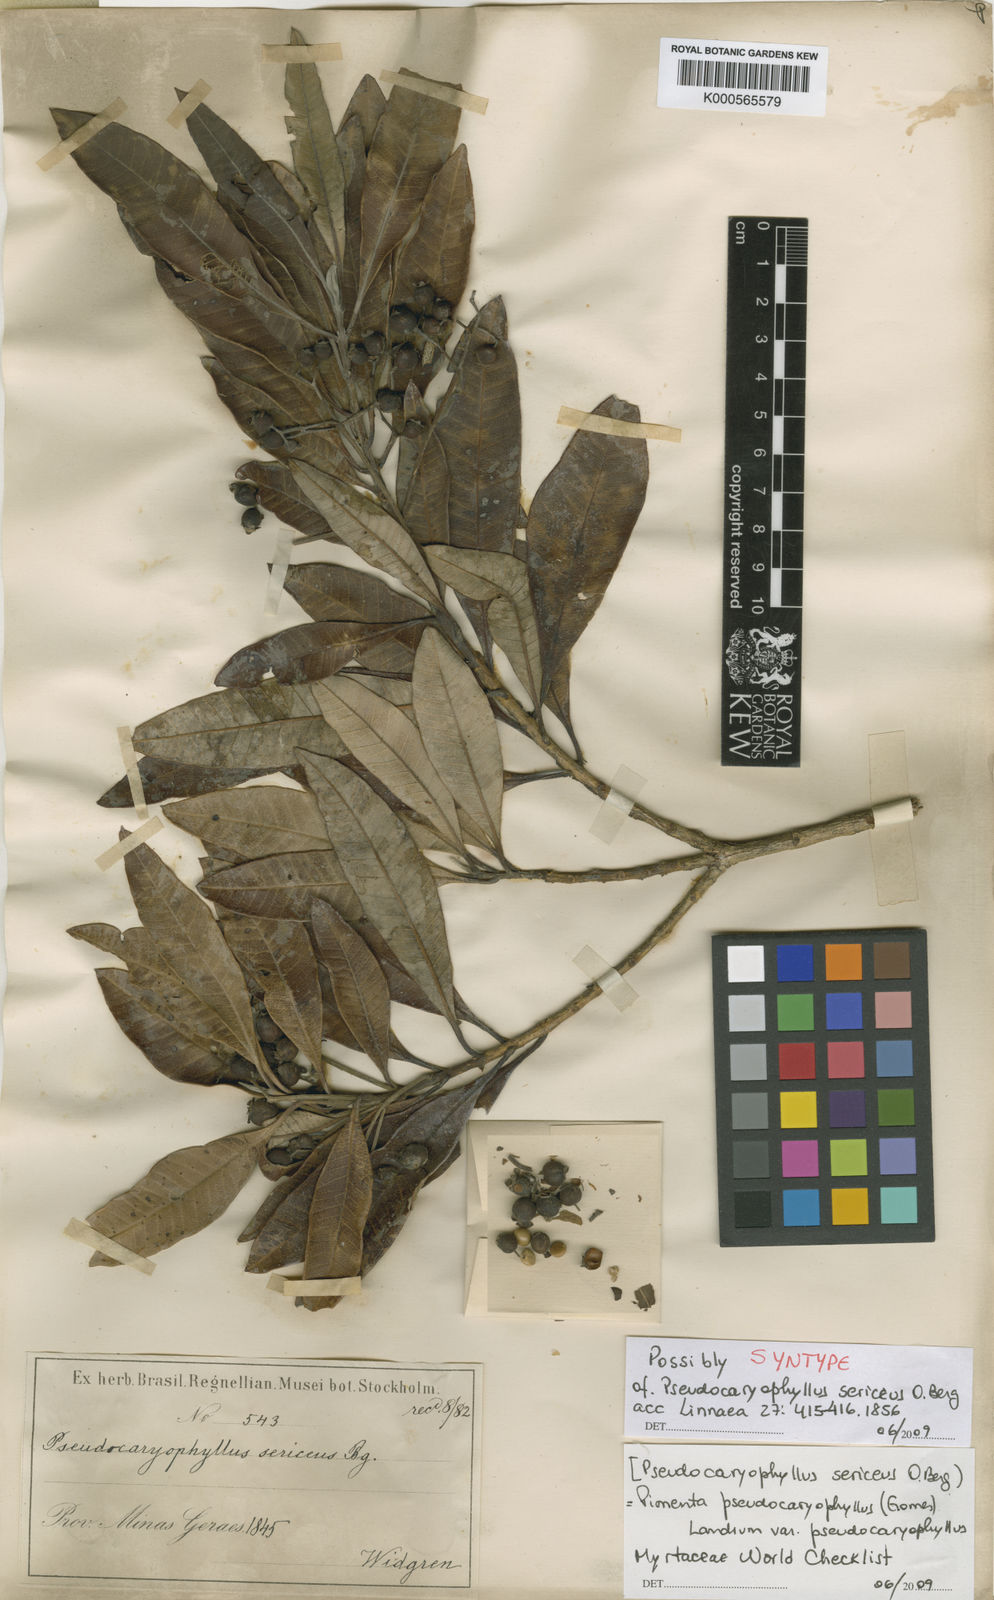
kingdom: Plantae
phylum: Tracheophyta
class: Magnoliopsida
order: Myrtales
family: Myrtaceae
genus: Pimenta
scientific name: Pimenta pseudocaryophyllus
